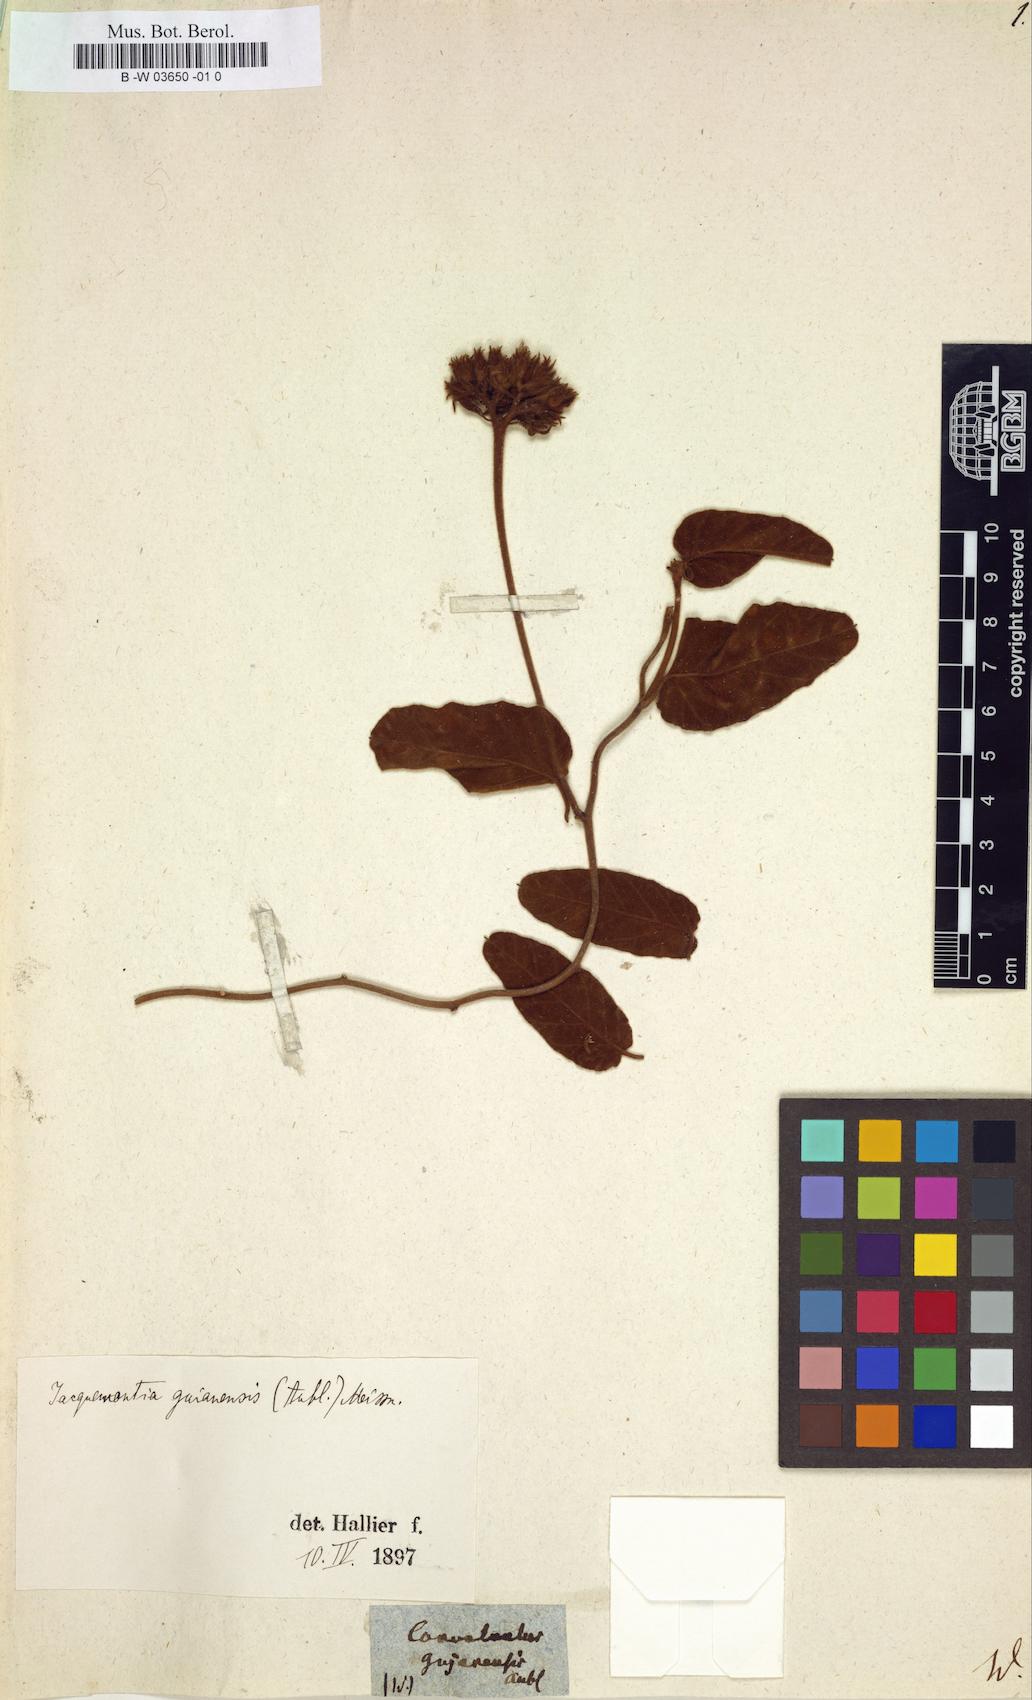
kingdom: Plantae
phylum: Tracheophyta
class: Magnoliopsida
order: Solanales
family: Convolvulaceae
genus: Jacquemontia
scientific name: Jacquemontia guyanensis
